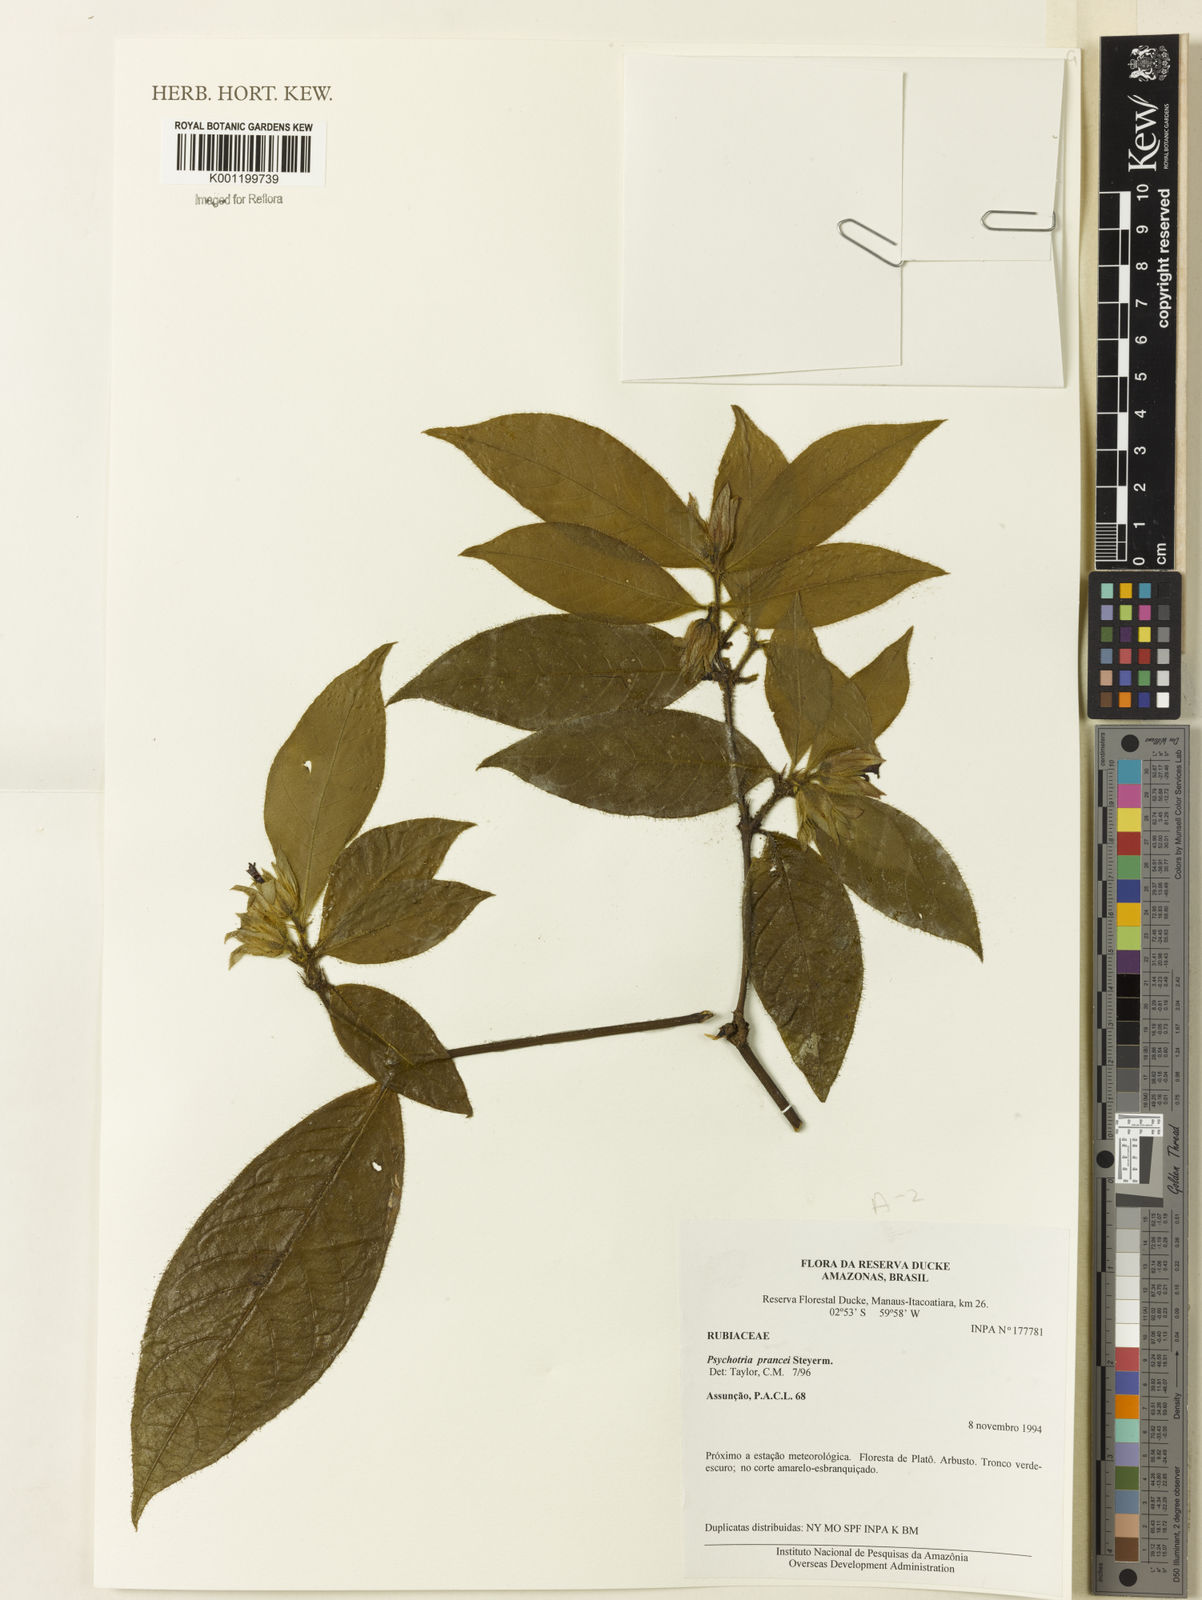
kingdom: Plantae
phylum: Tracheophyta
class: Magnoliopsida
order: Gentianales
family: Rubiaceae
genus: Palicourea
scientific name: Palicourea prancei
